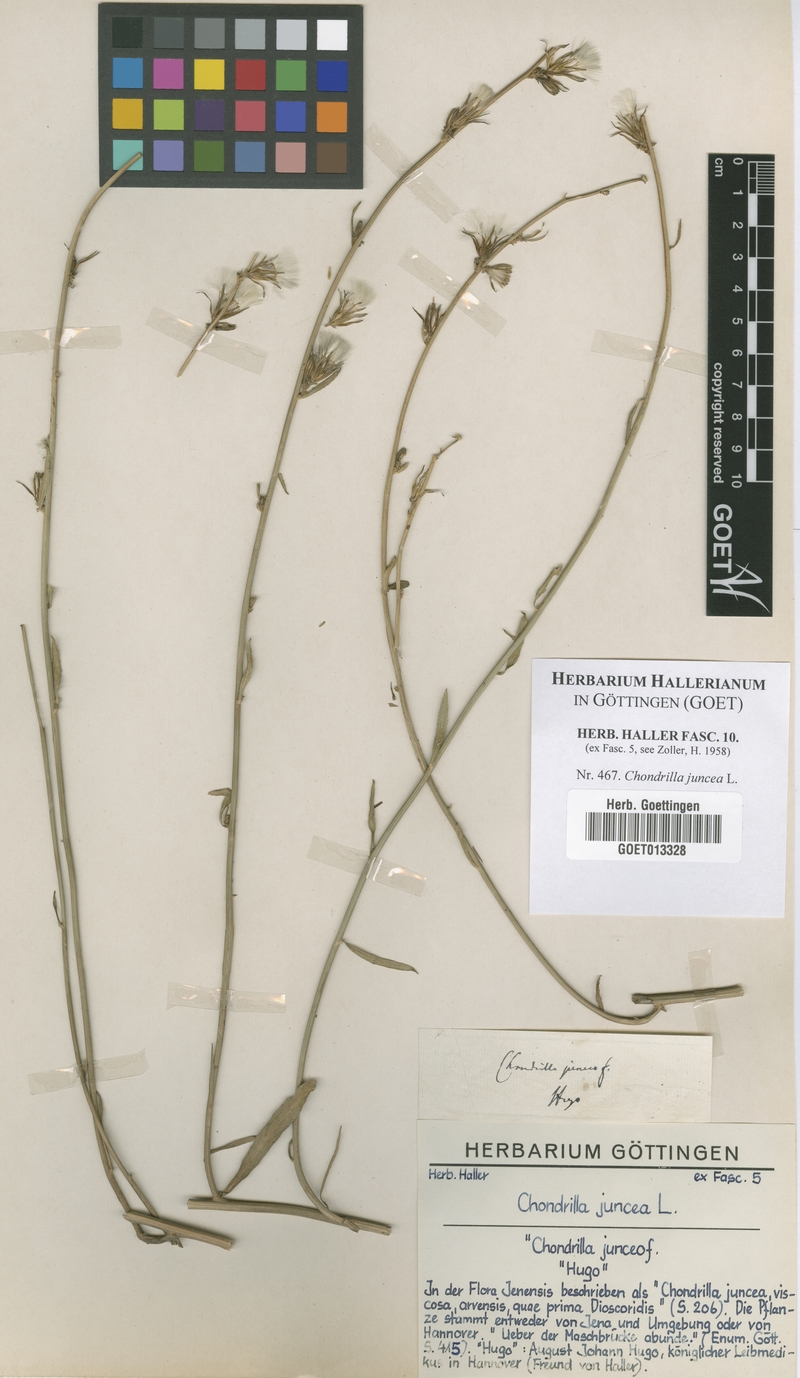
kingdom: Plantae
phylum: Tracheophyta
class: Magnoliopsida
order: Asterales
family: Asteraceae
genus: Chondrilla
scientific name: Chondrilla juncea
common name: Skeleton weed
